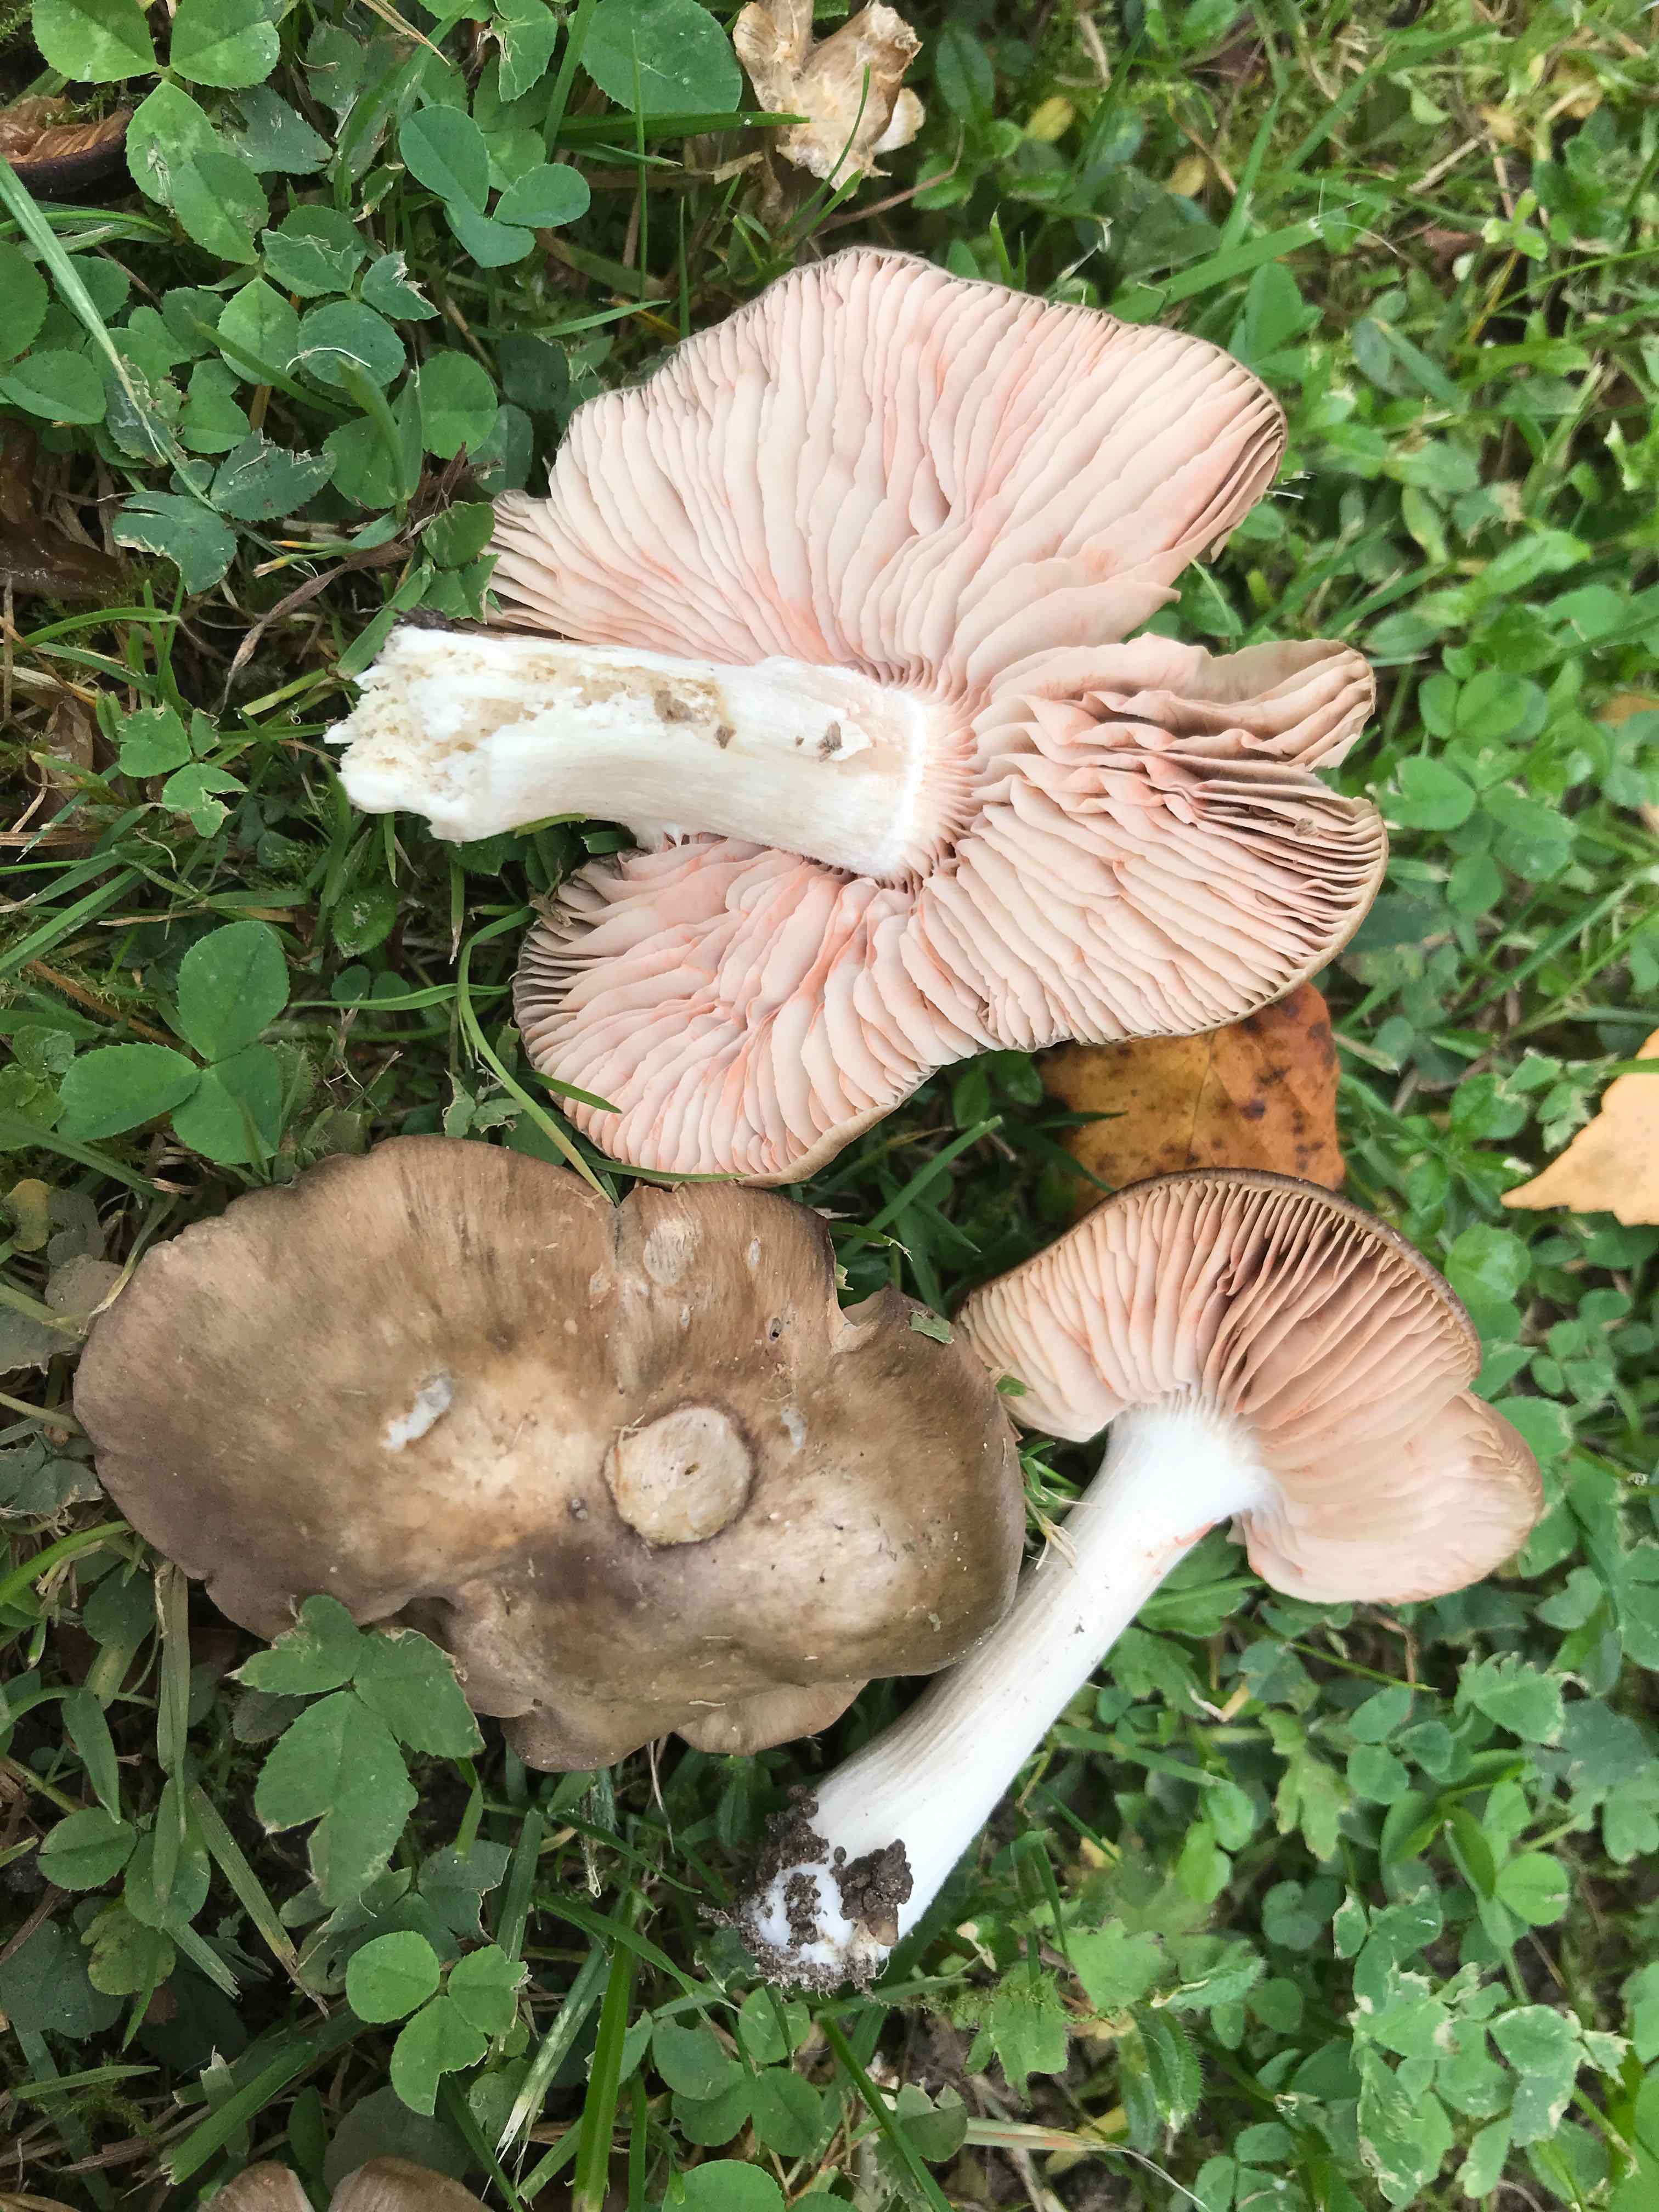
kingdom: Fungi
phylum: Basidiomycota
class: Agaricomycetes
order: Agaricales
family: Entolomataceae
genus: Entoloma
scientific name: Entoloma lividoalbum
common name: lysstokket rødblad
